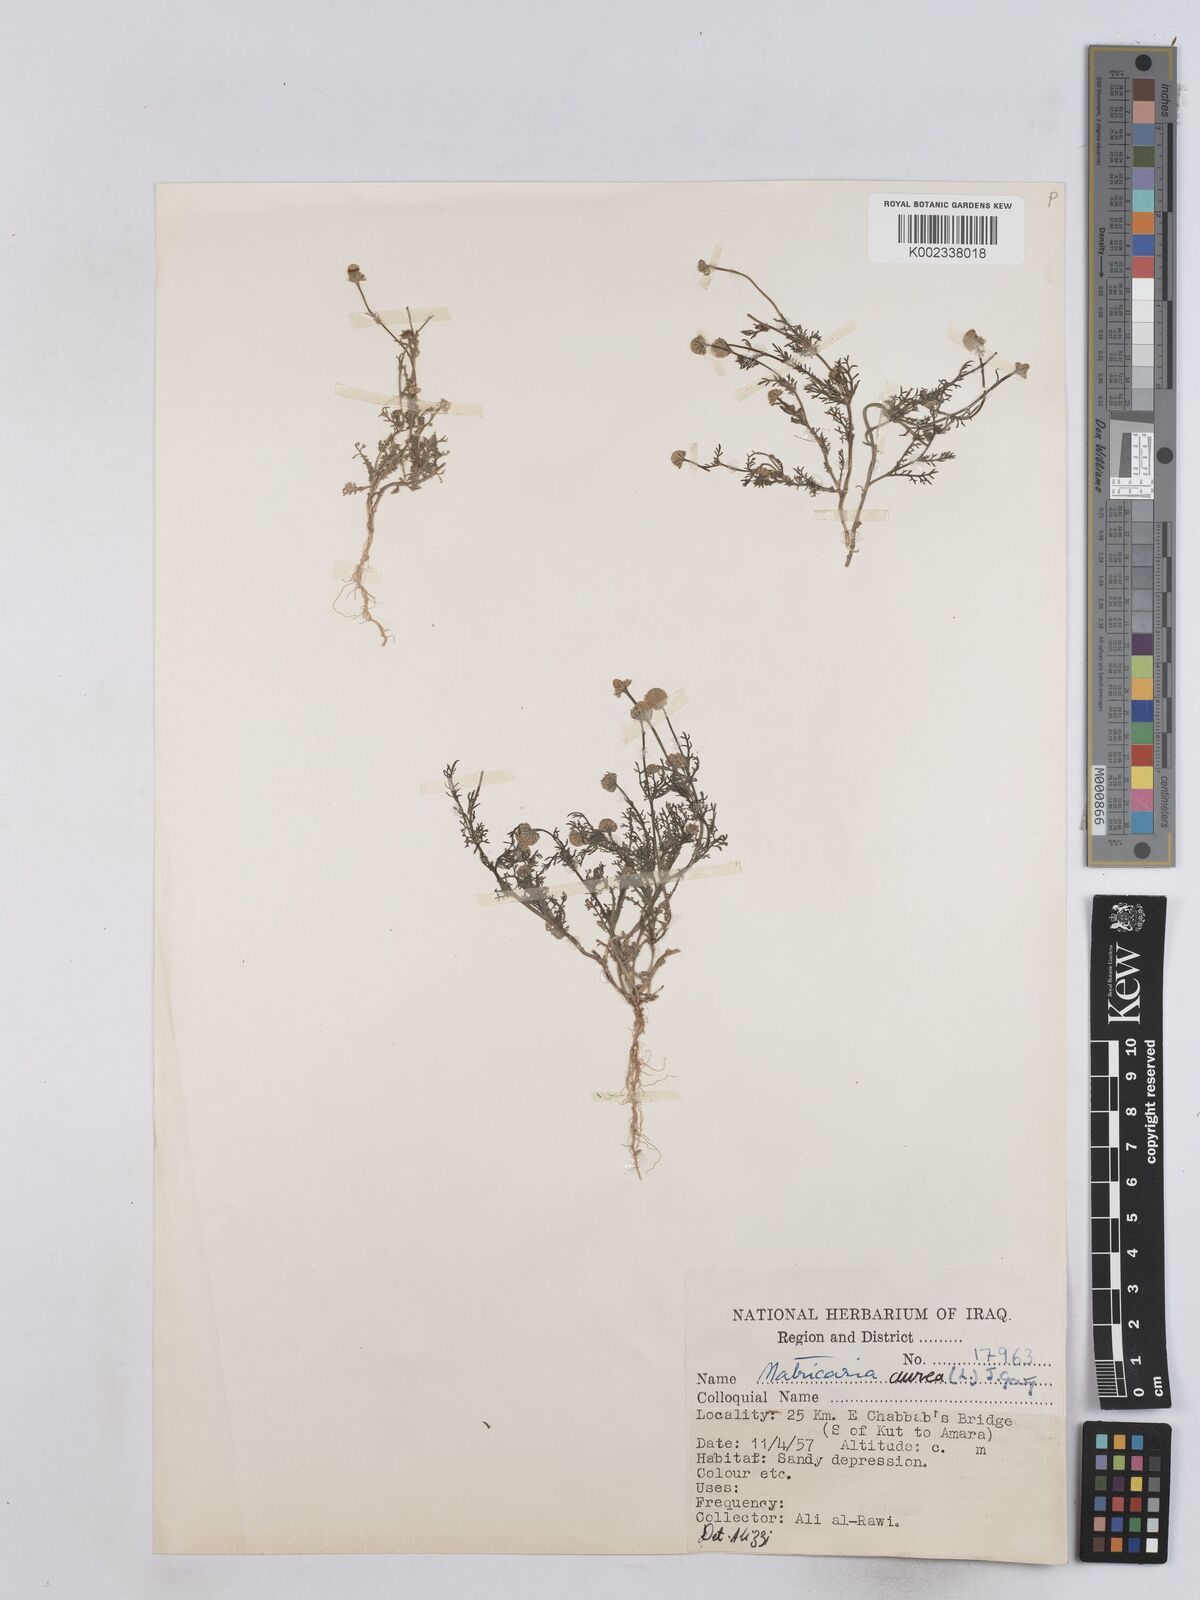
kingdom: Plantae
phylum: Tracheophyta
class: Magnoliopsida
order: Asterales
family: Asteraceae
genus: Matricaria
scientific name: Matricaria aurea
